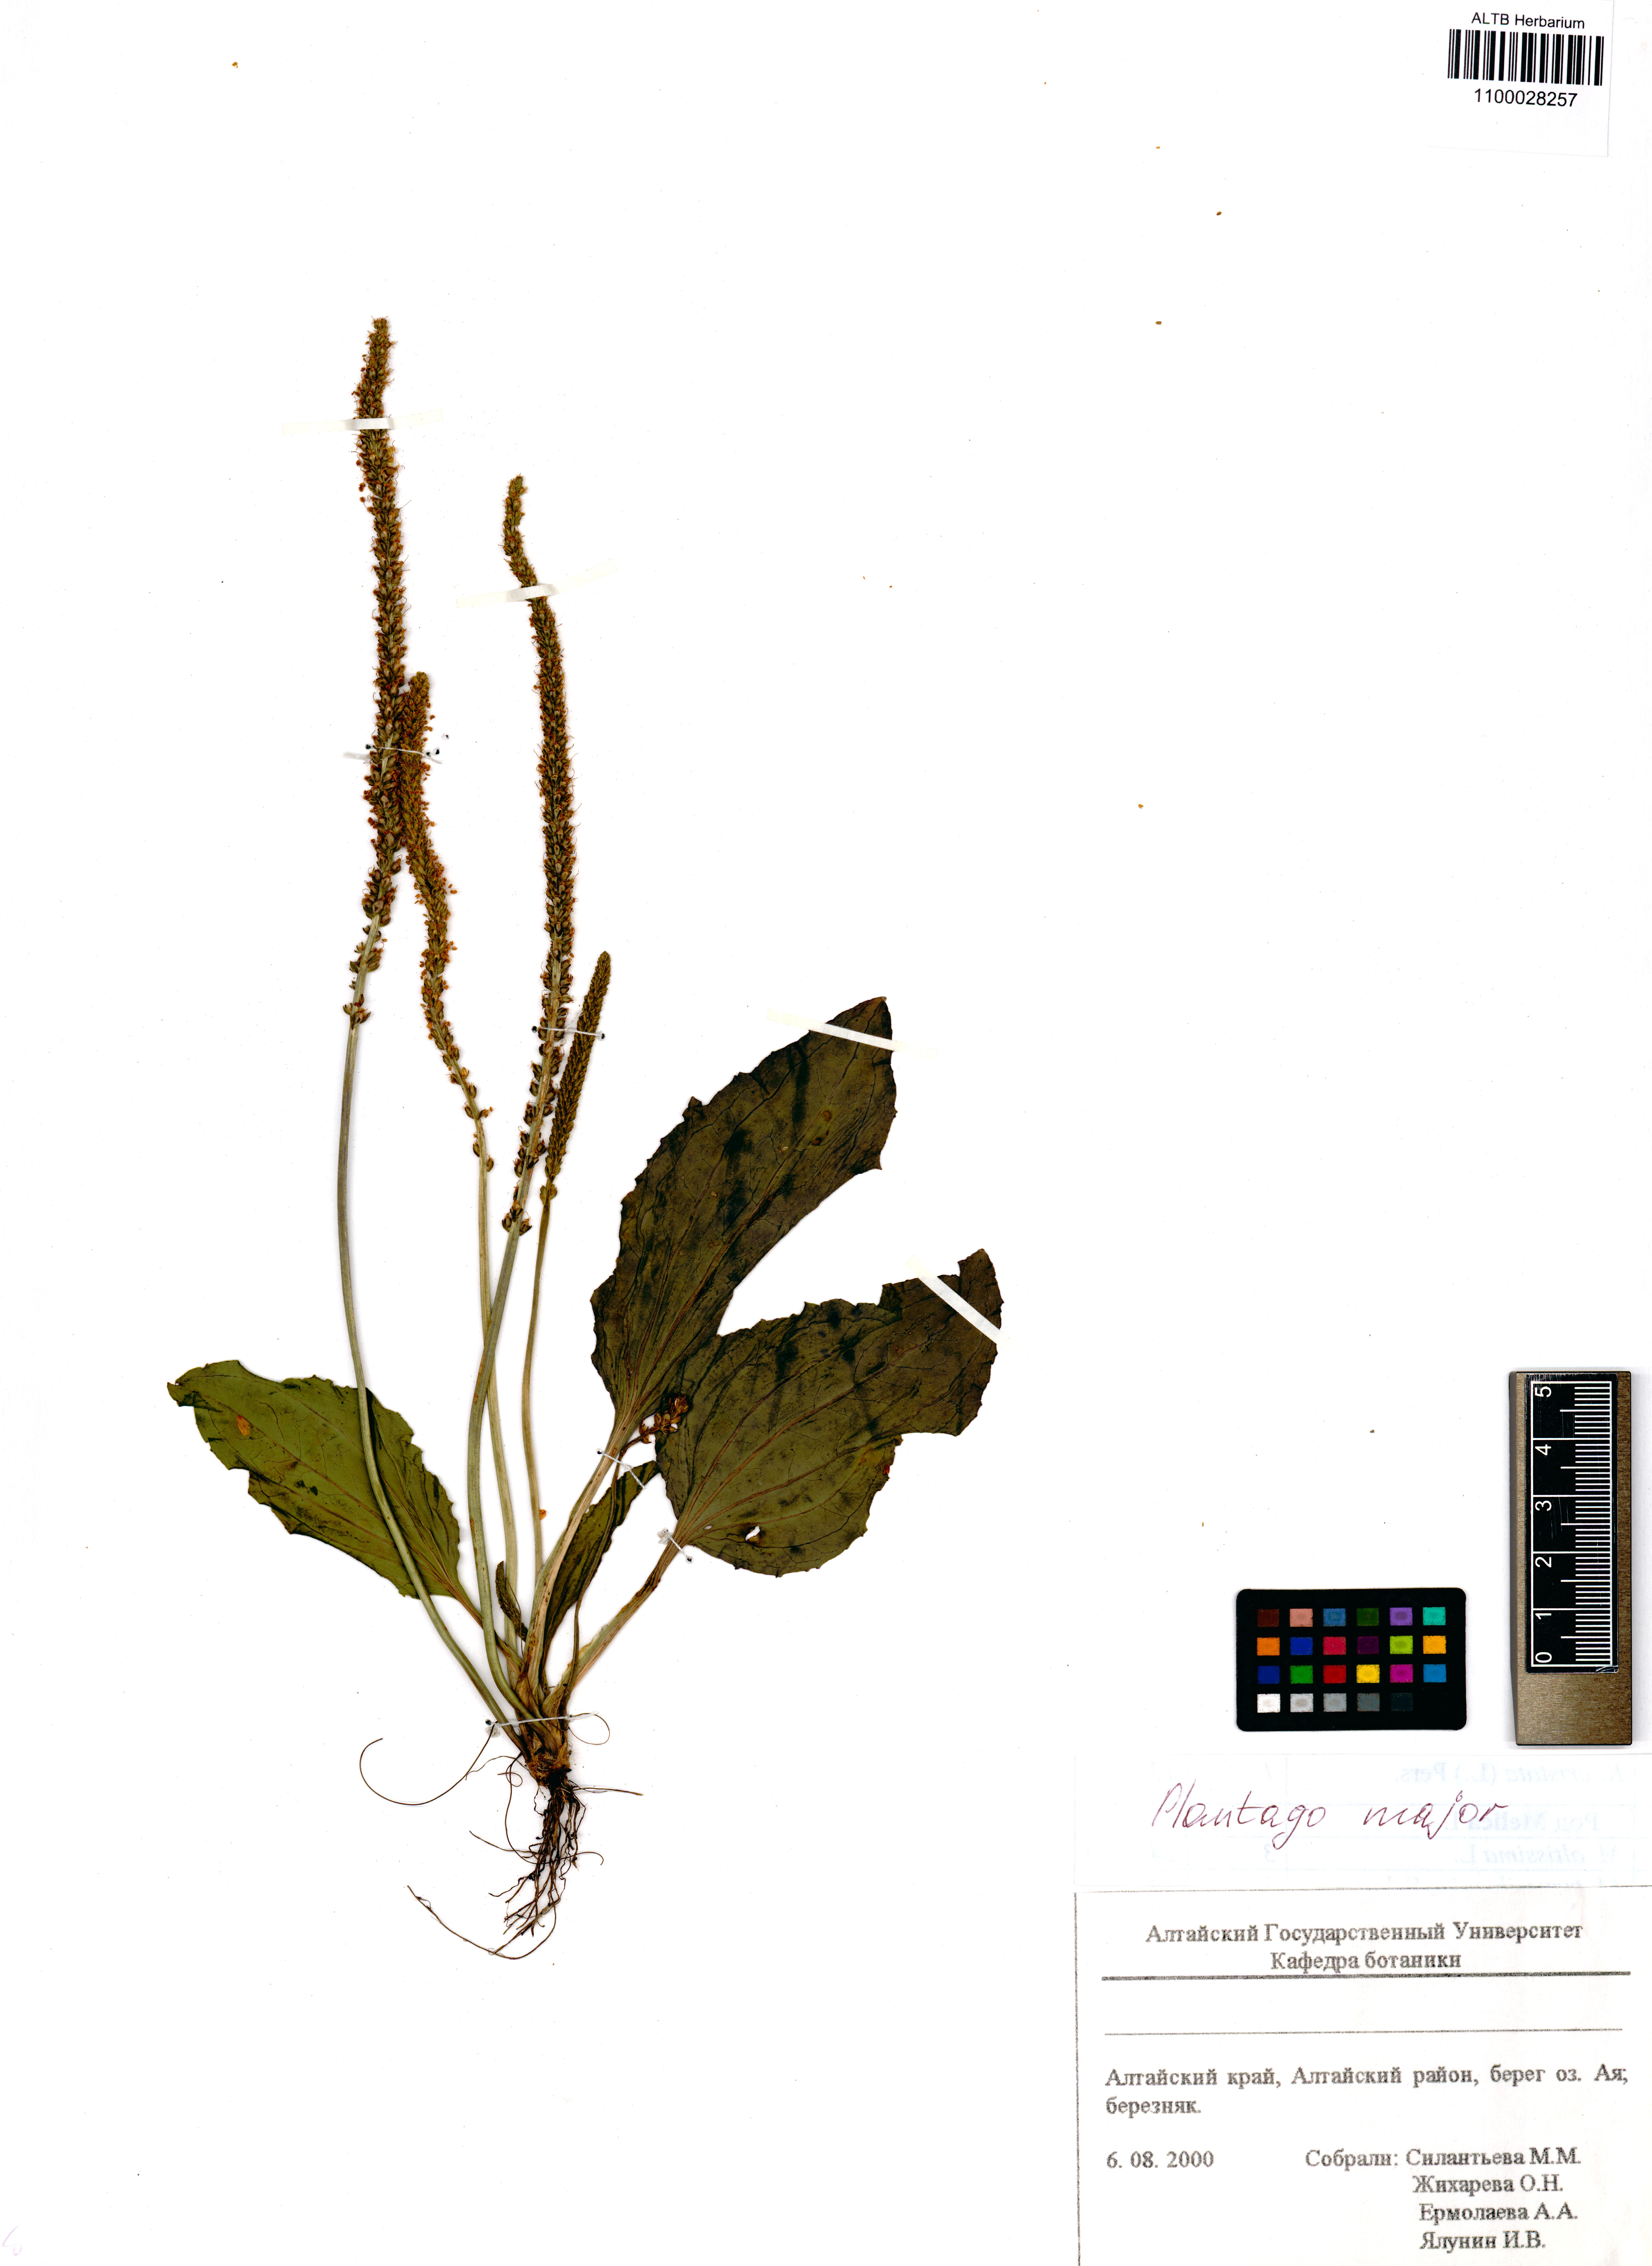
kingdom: Plantae
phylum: Tracheophyta
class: Magnoliopsida
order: Lamiales
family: Plantaginaceae
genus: Plantago
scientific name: Plantago major
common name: Common plantain
